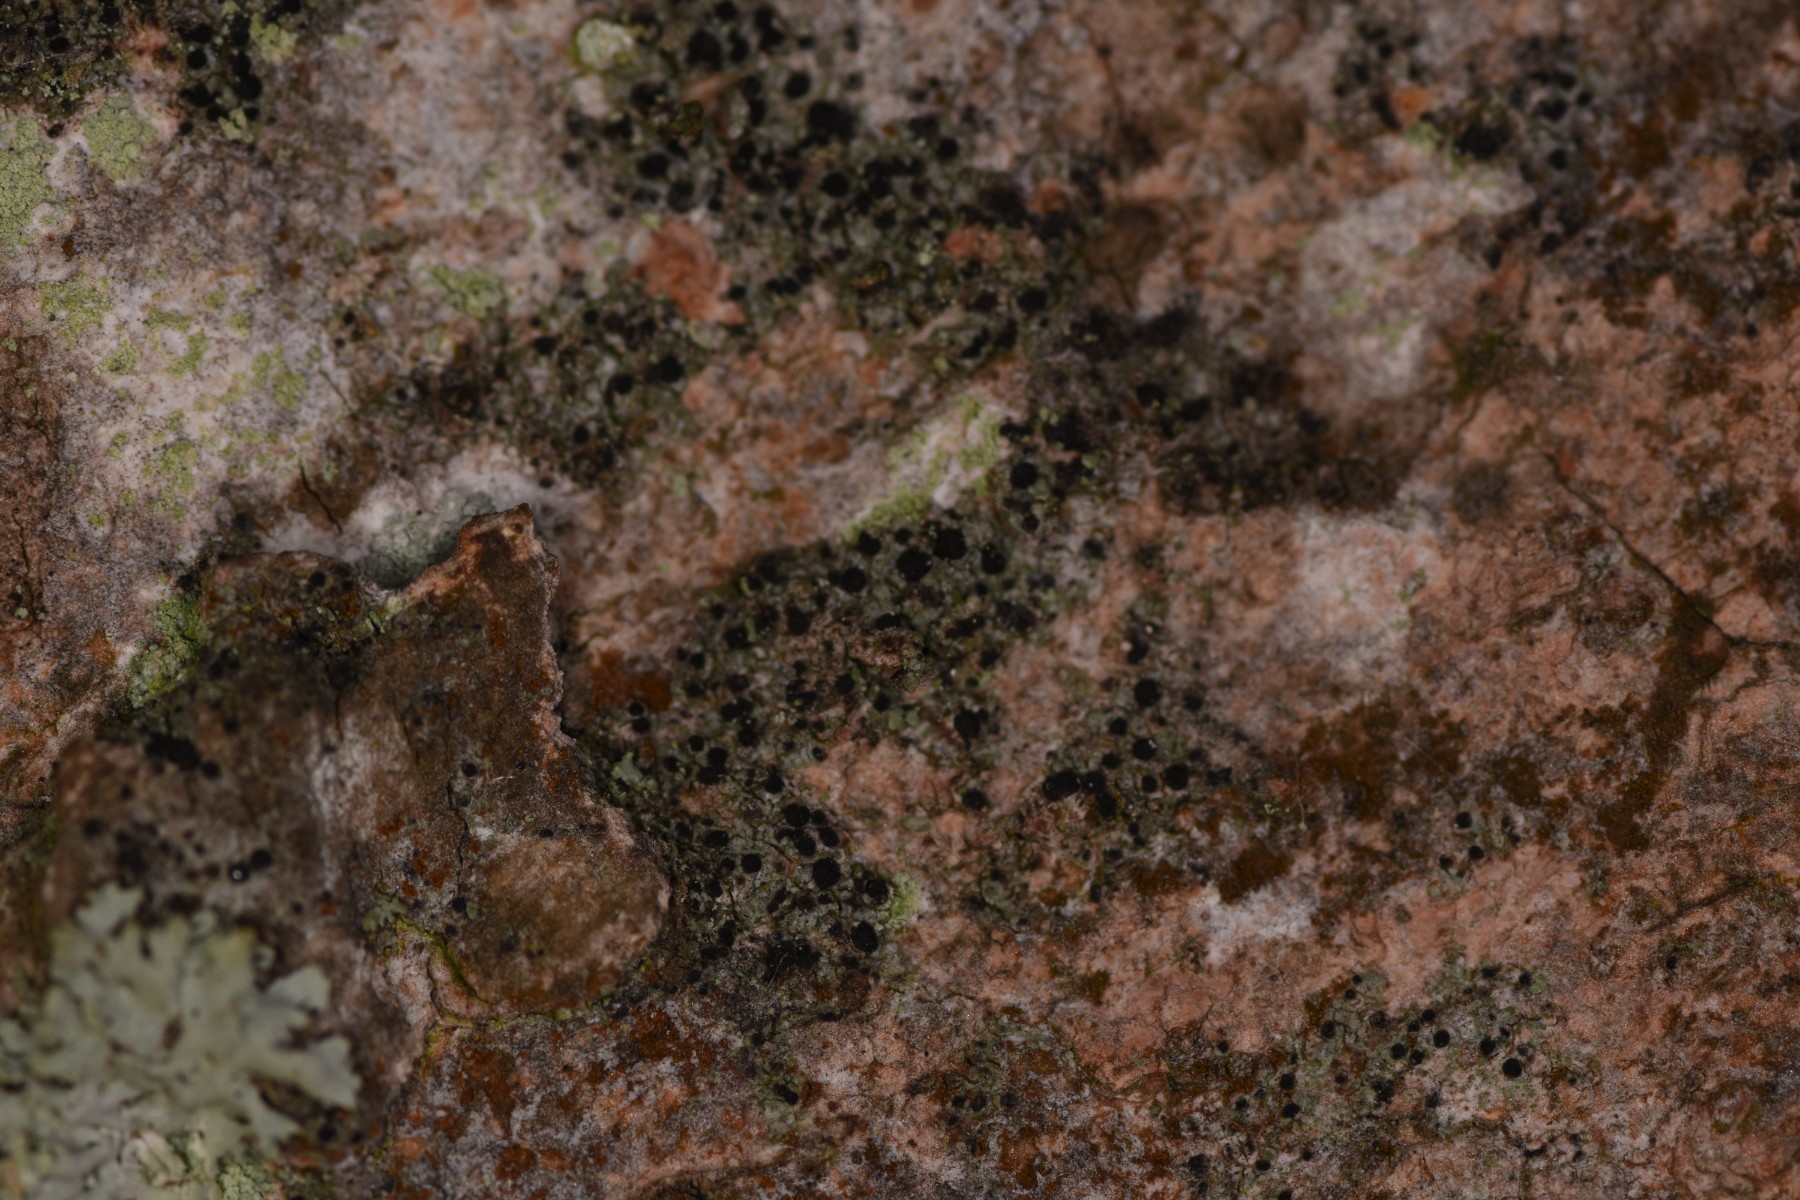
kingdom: Fungi
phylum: Ascomycota
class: Lecanoromycetes
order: Caliciales
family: Caliciaceae
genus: Amandinea
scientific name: Amandinea punctata
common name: liden sortskivelav
